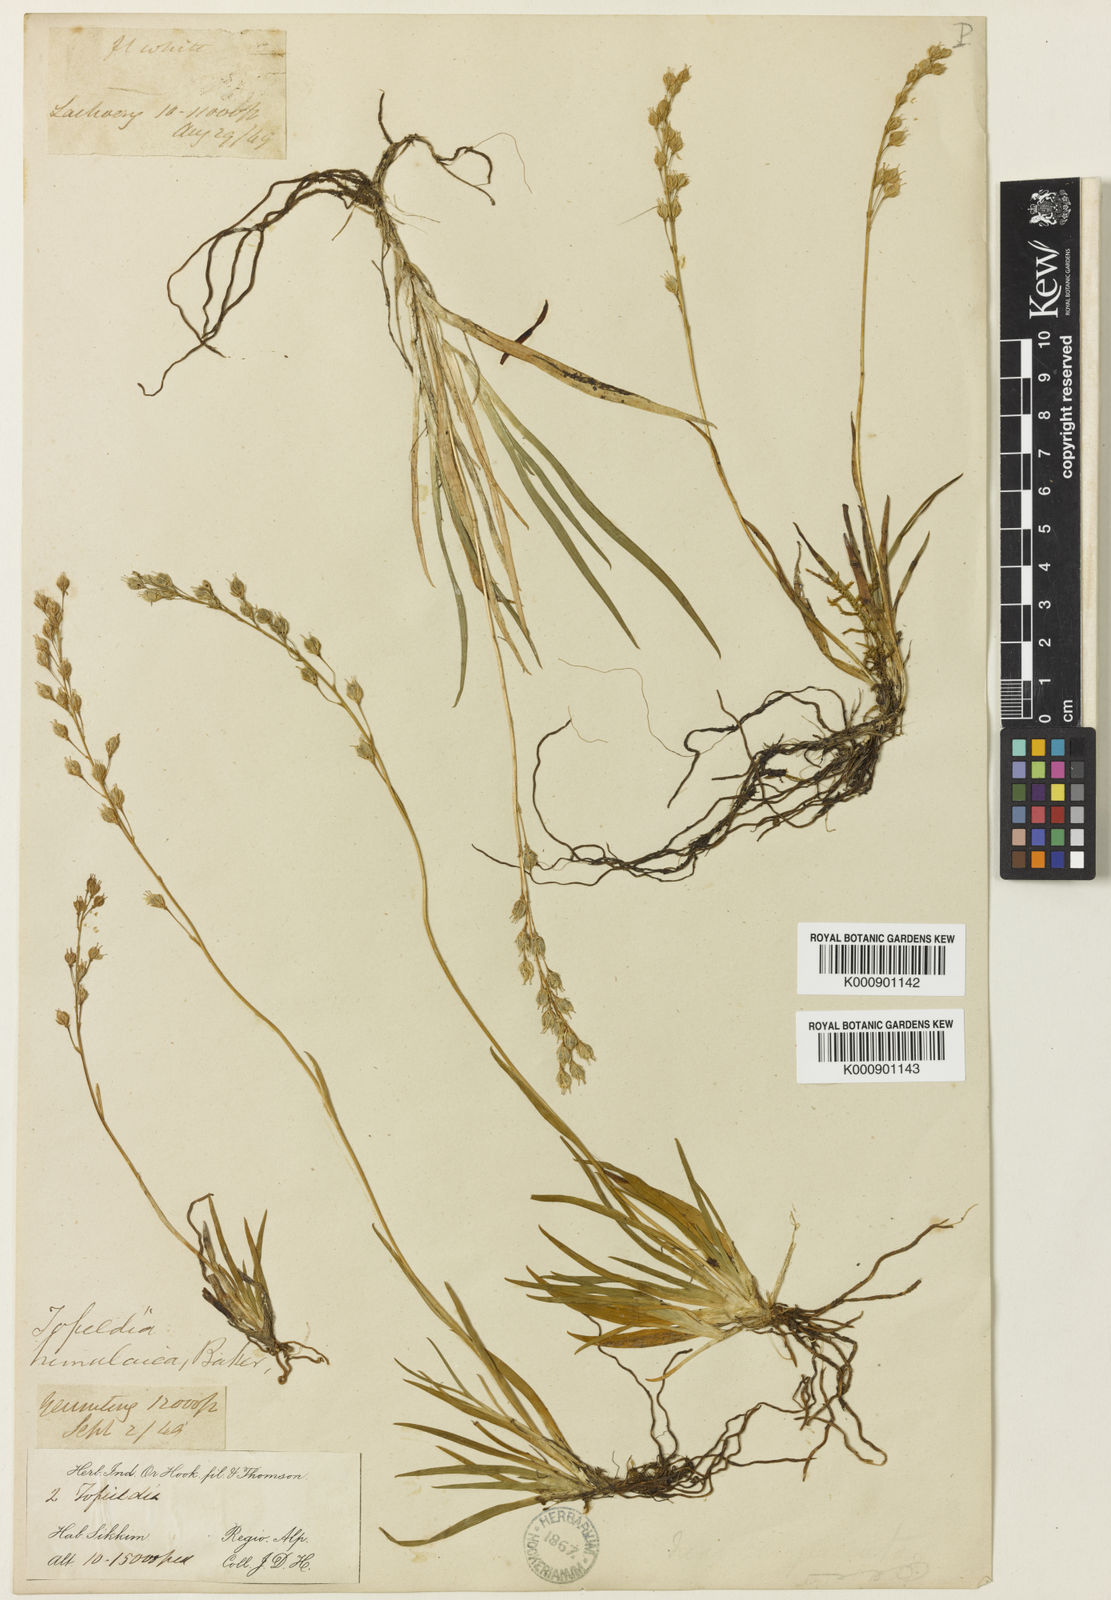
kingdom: Plantae
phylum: Tracheophyta
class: Liliopsida
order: Alismatales
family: Tofieldiaceae
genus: Tofieldia
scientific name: Tofieldia himalaica
